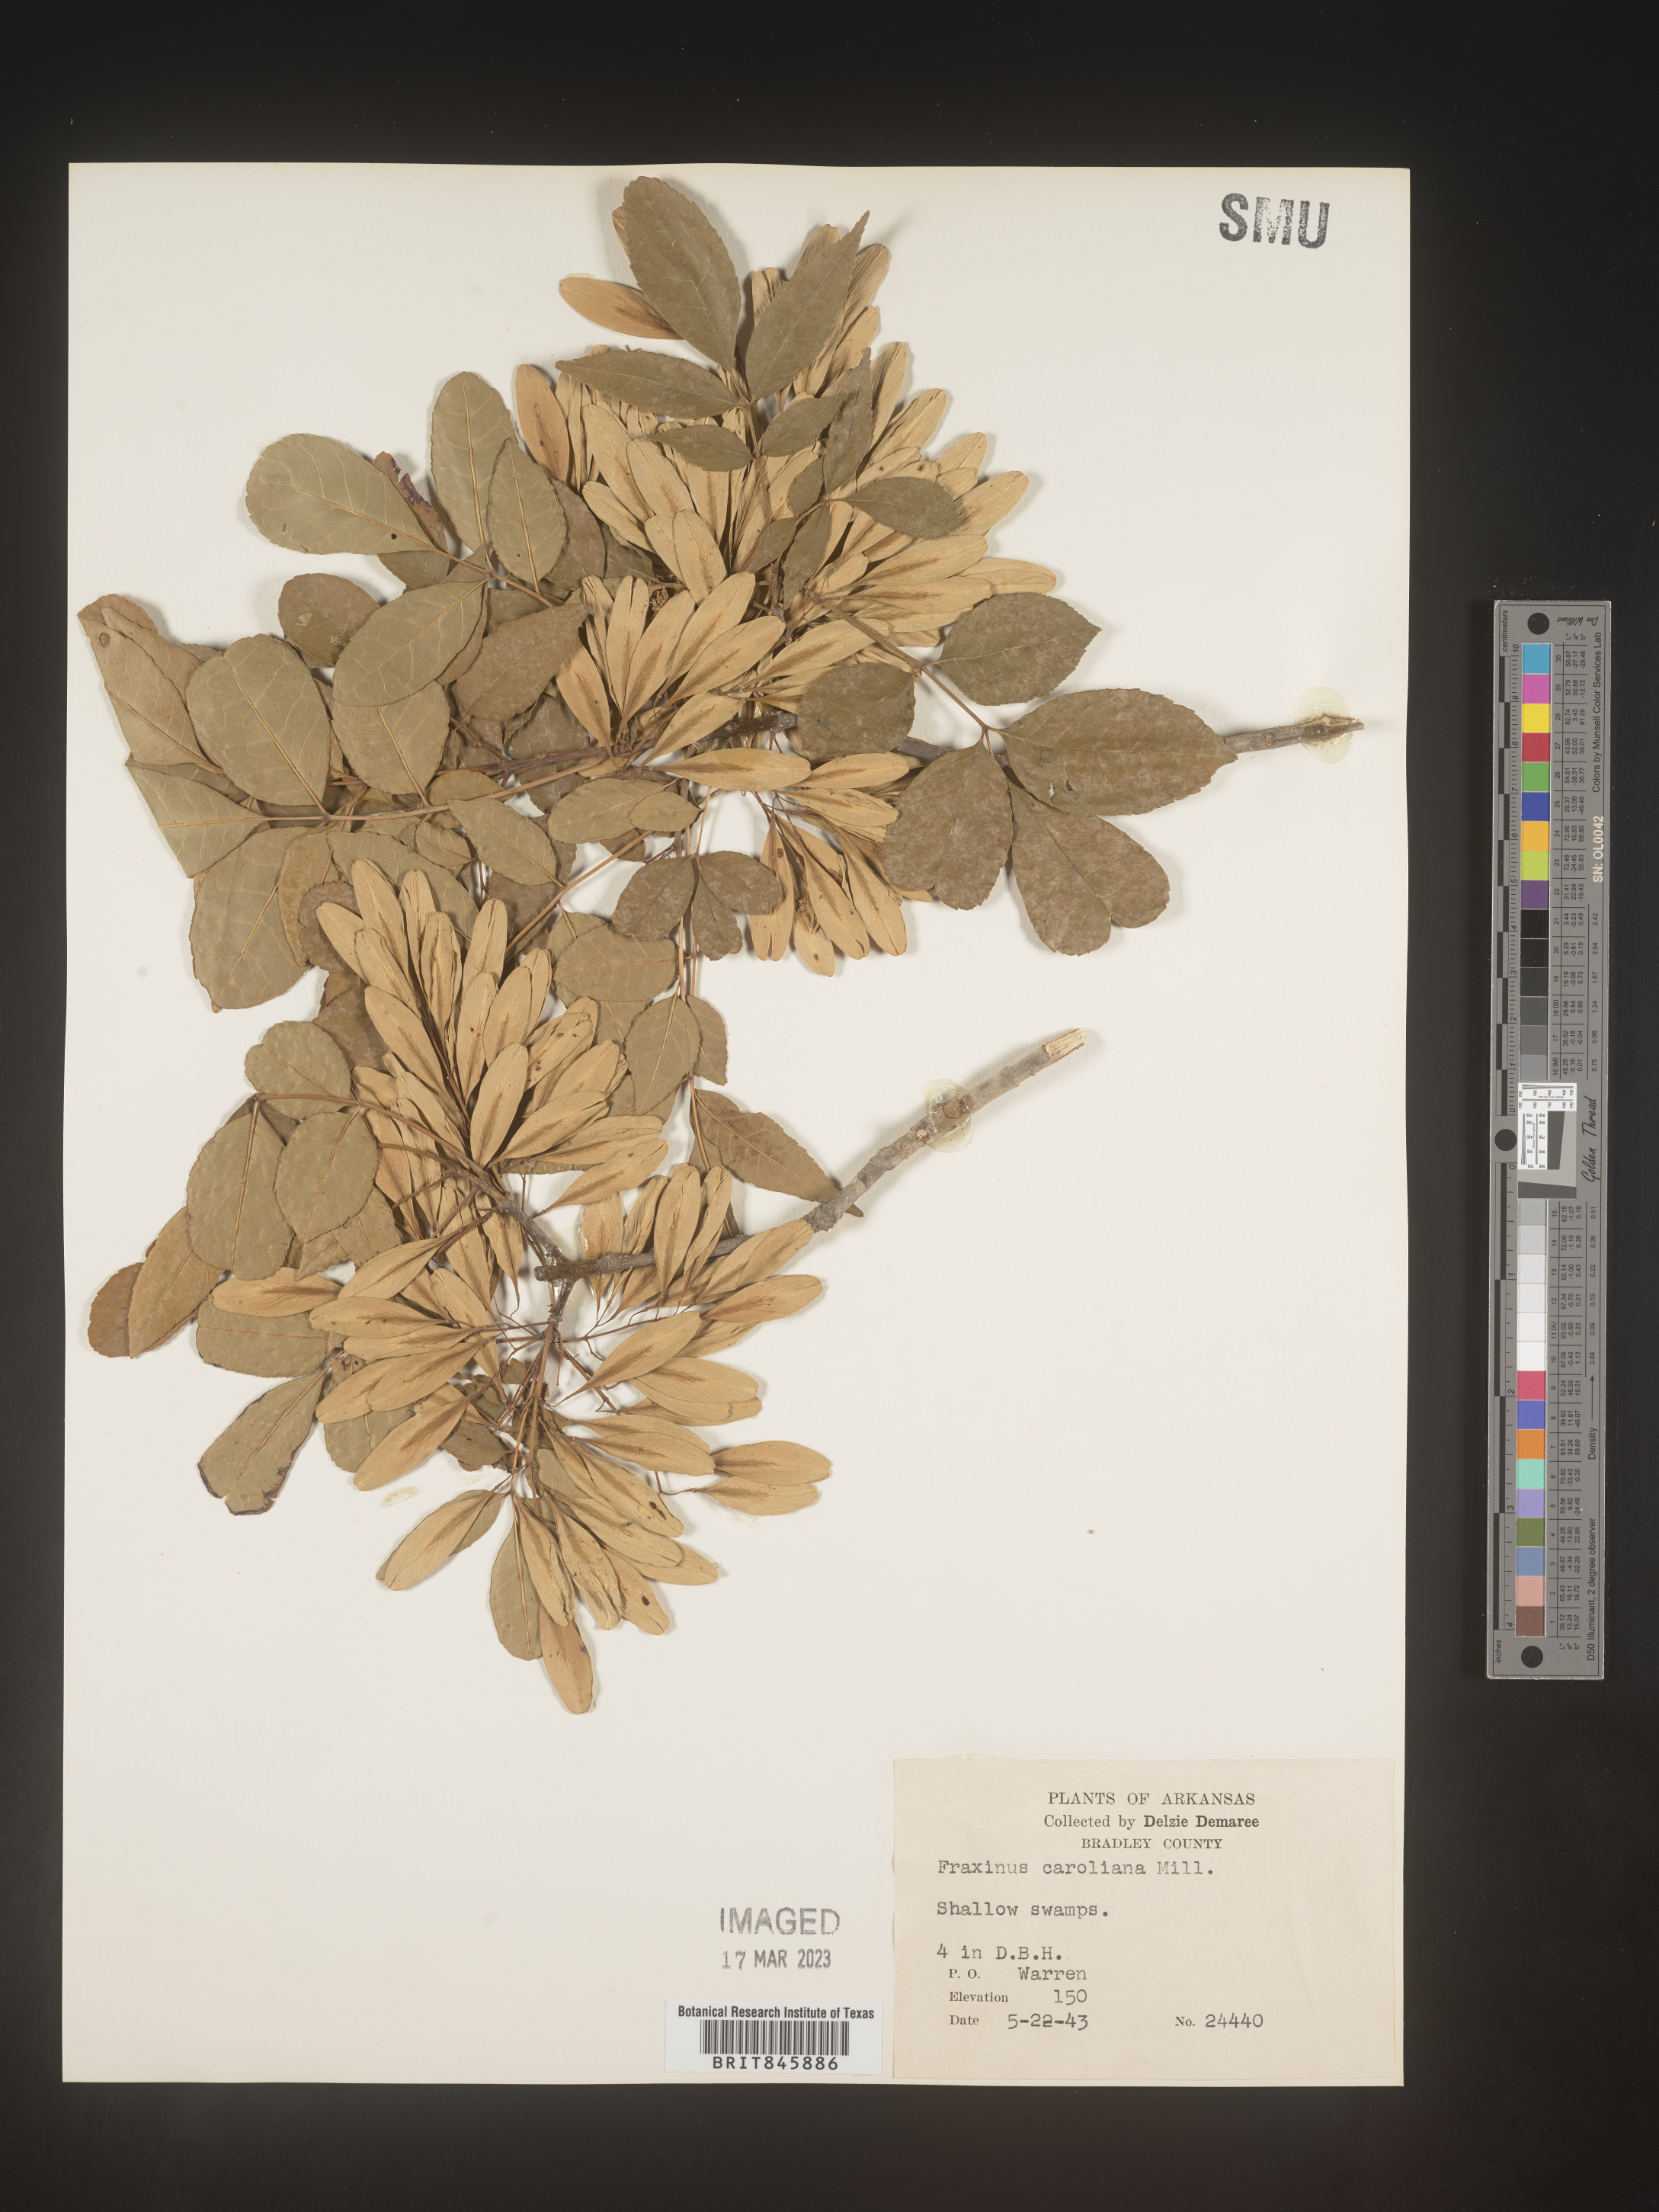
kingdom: Plantae
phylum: Tracheophyta
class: Magnoliopsida
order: Lamiales
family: Oleaceae
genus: Fraxinus
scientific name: Fraxinus caroliniana
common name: Carolina ash
